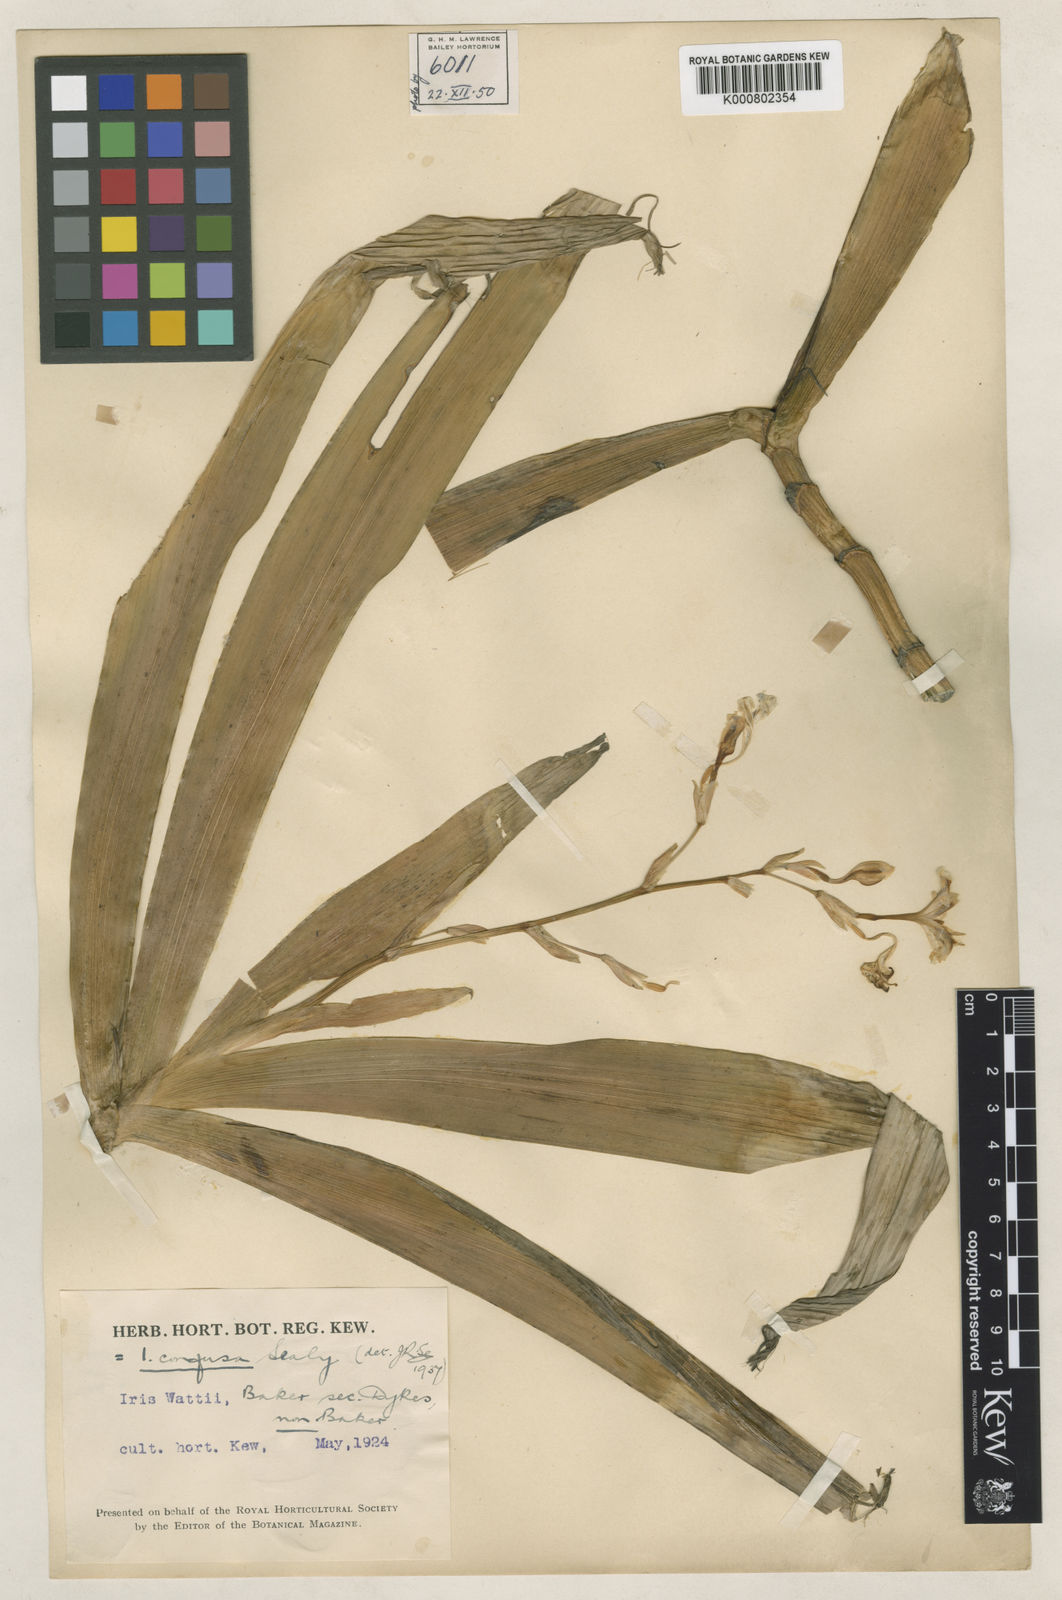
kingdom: Plantae
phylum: Tracheophyta
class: Liliopsida
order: Asparagales
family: Iridaceae
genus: Iris
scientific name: Iris wattii
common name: Fan-shape iris
